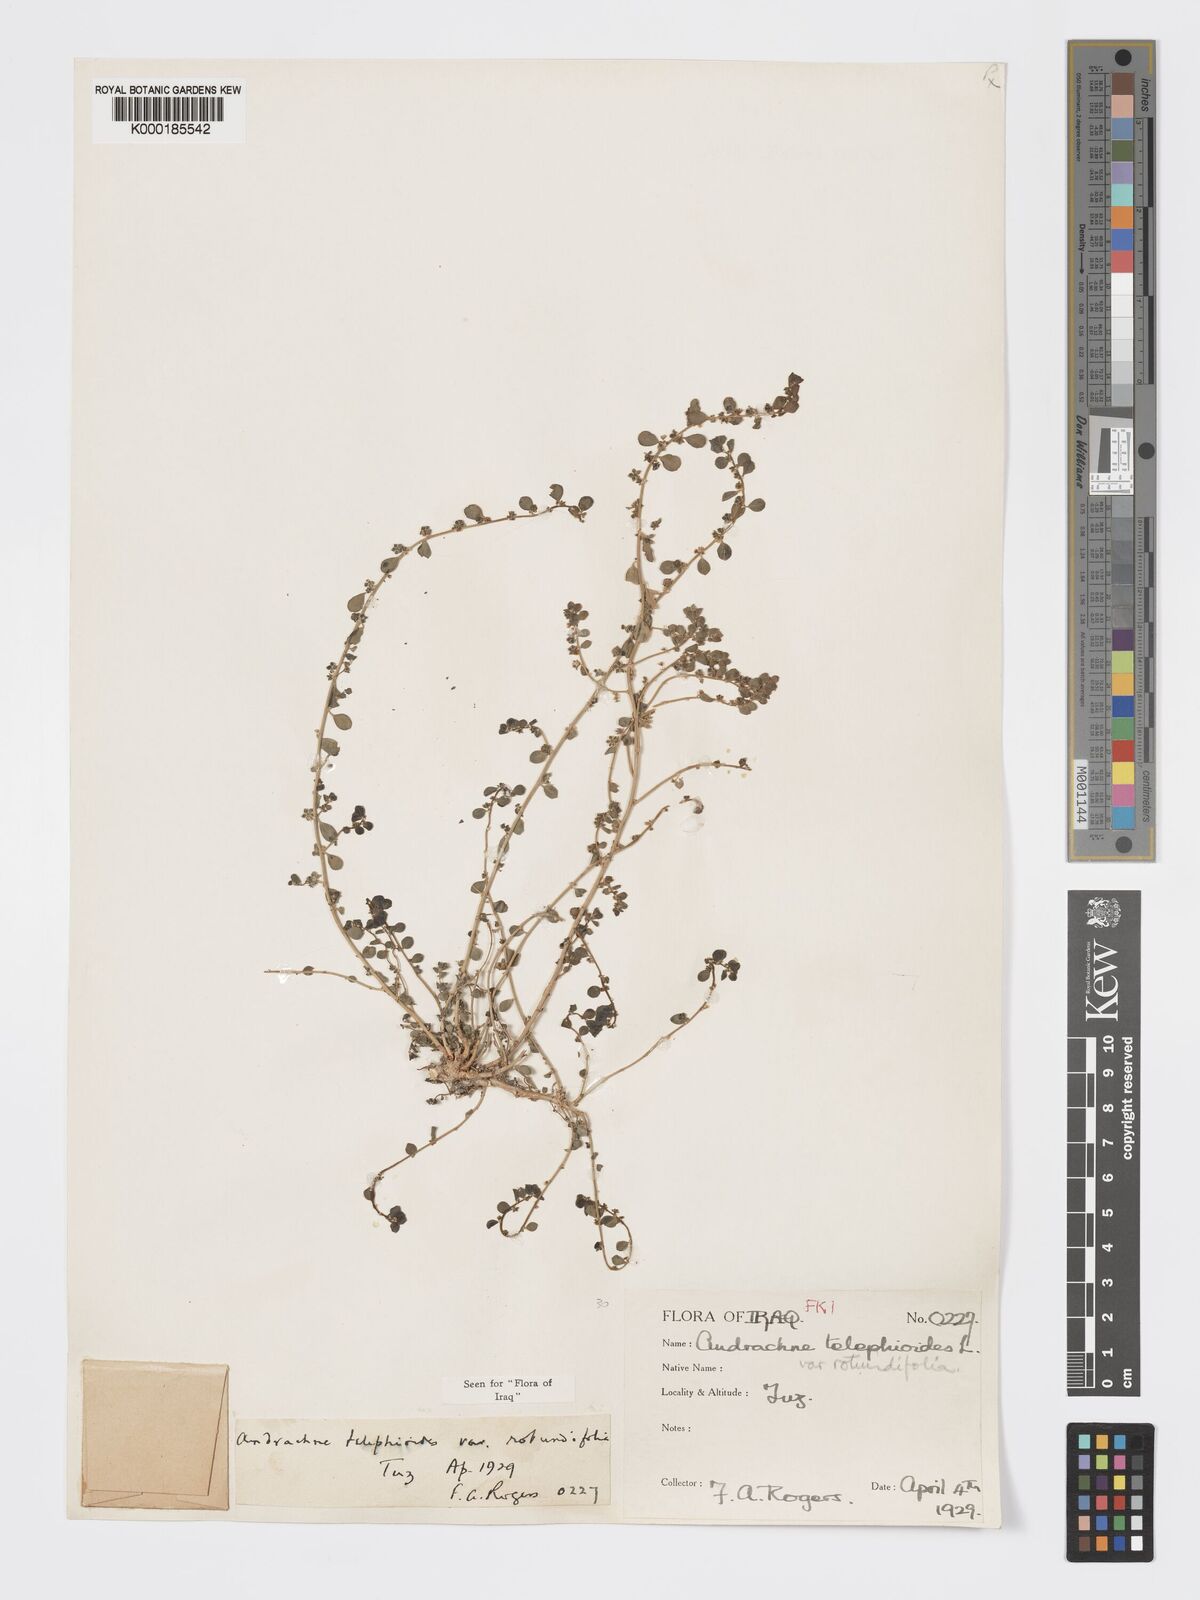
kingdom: Plantae
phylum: Tracheophyta
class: Magnoliopsida
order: Malpighiales
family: Phyllanthaceae
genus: Andrachne
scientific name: Andrachne telephioides
